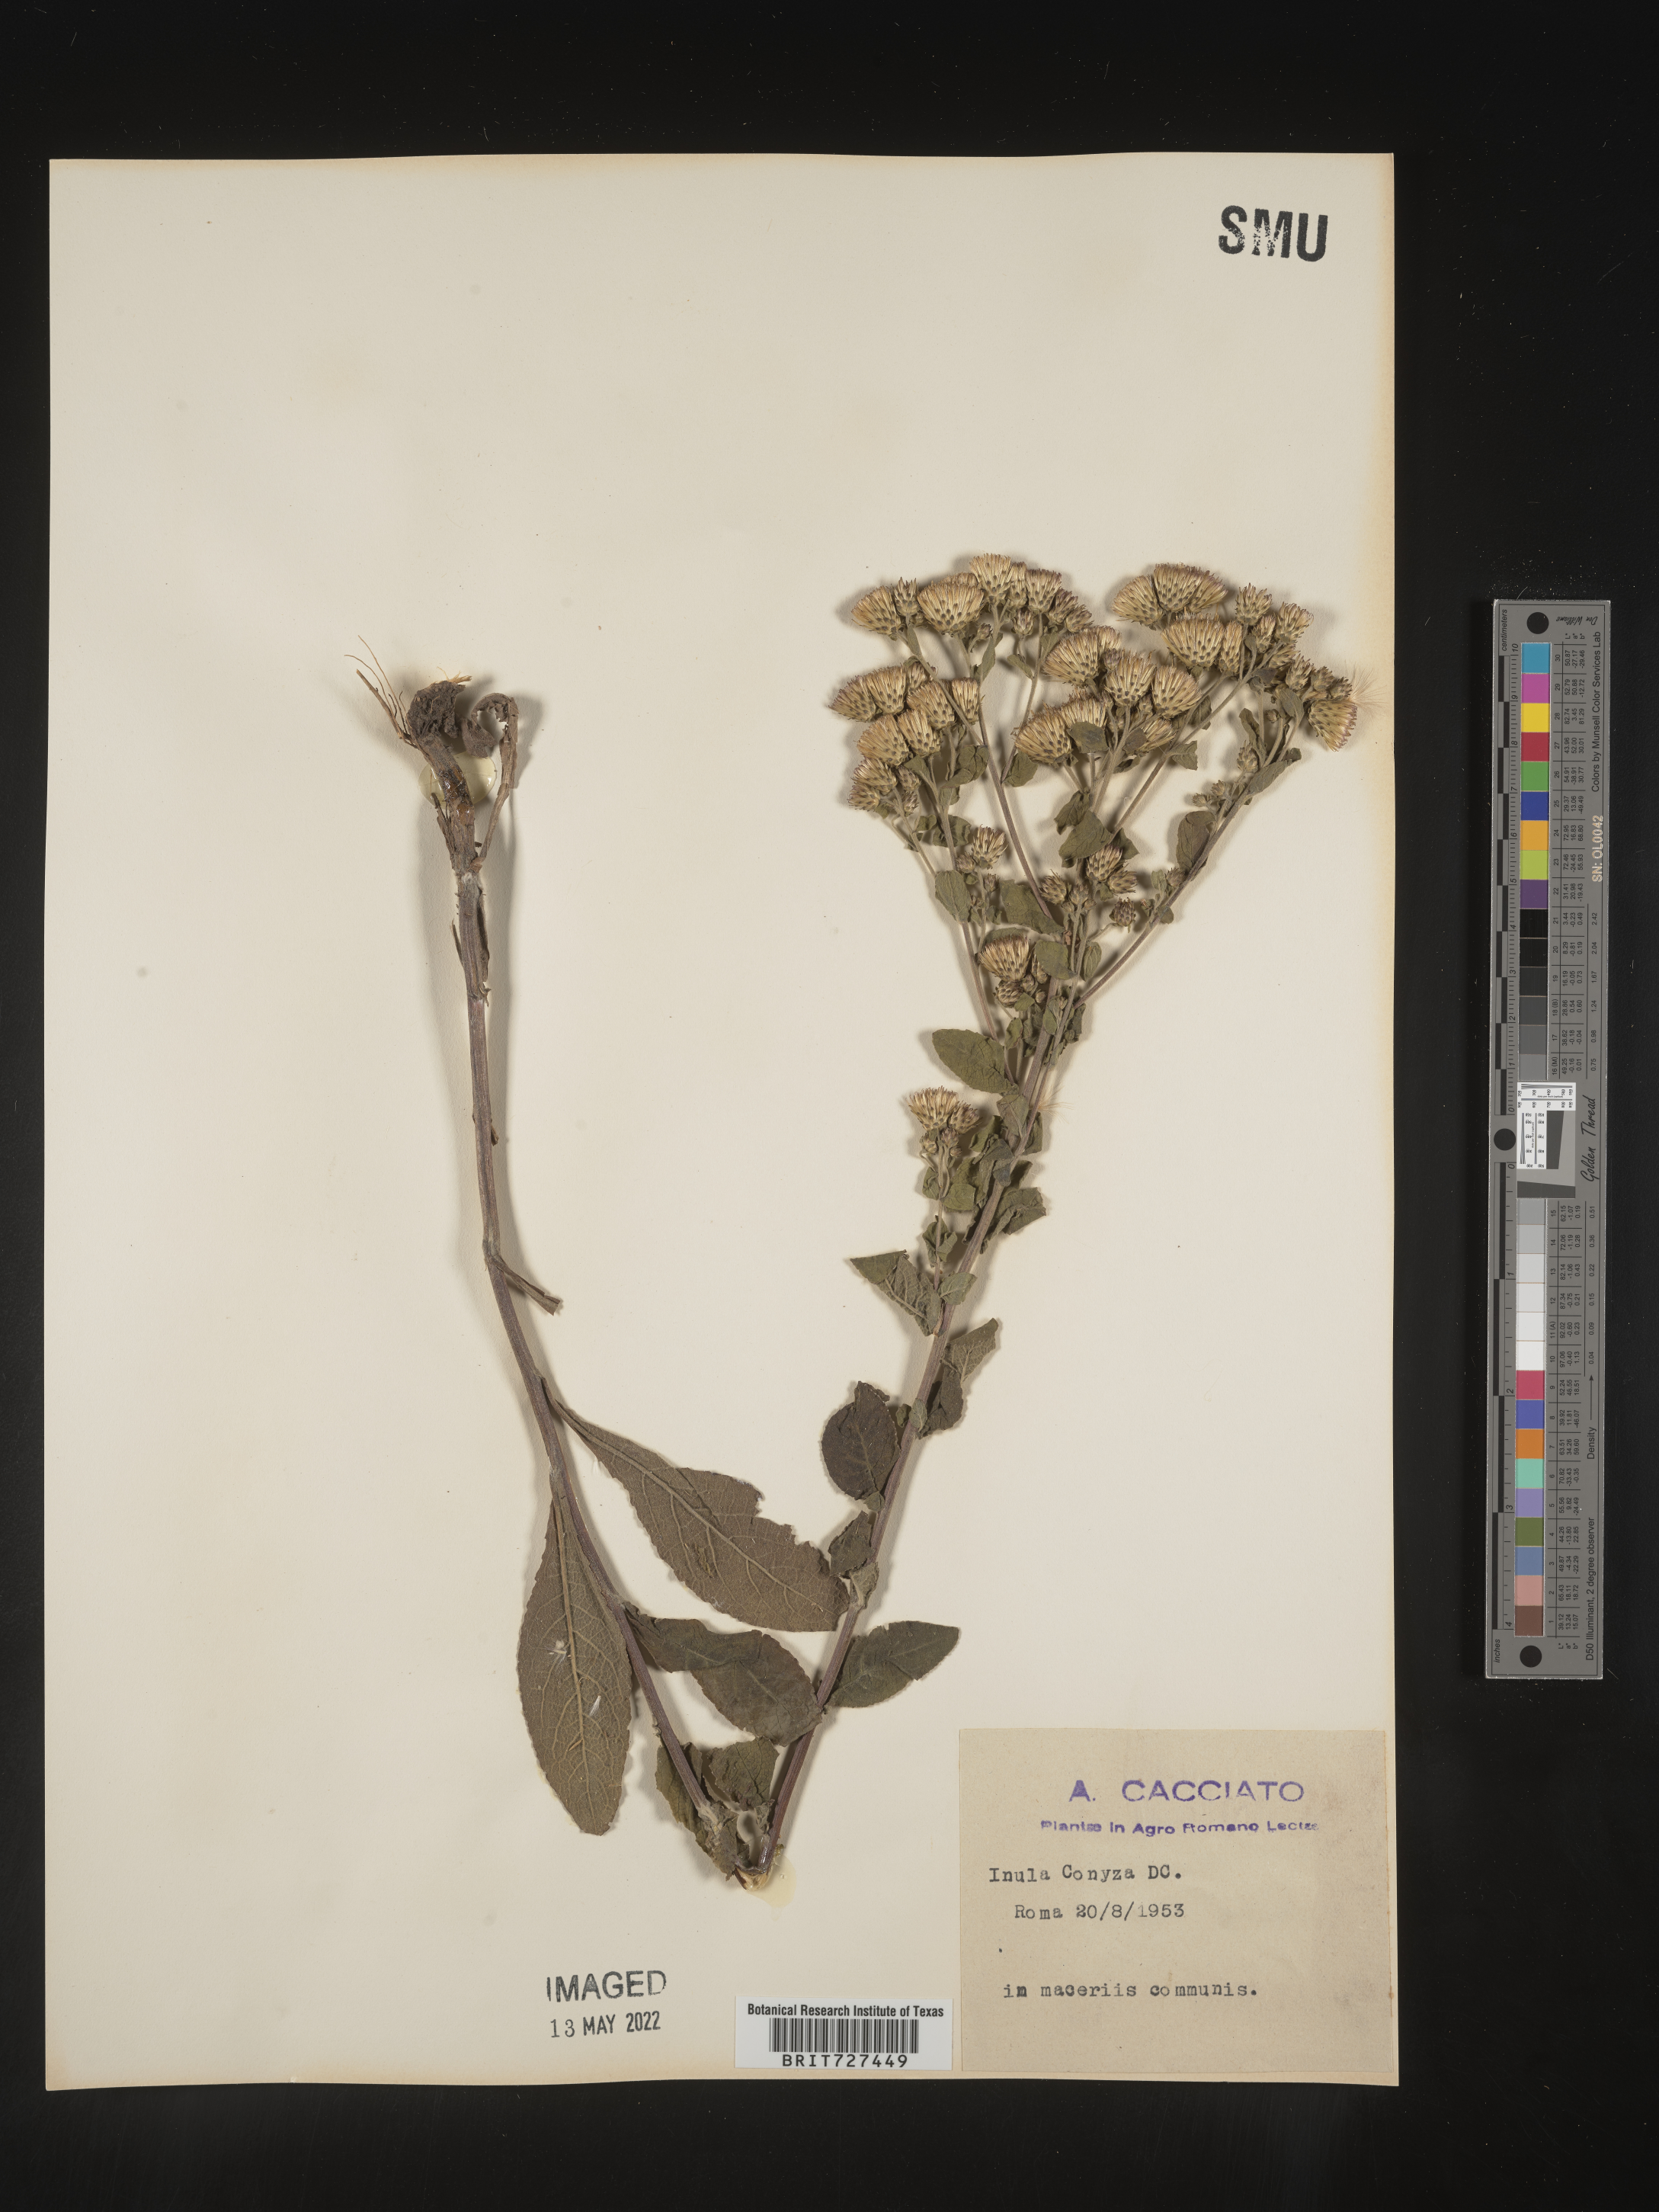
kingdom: Plantae
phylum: Tracheophyta
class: Magnoliopsida
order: Asterales
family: Asteraceae
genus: Inula
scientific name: Inula
